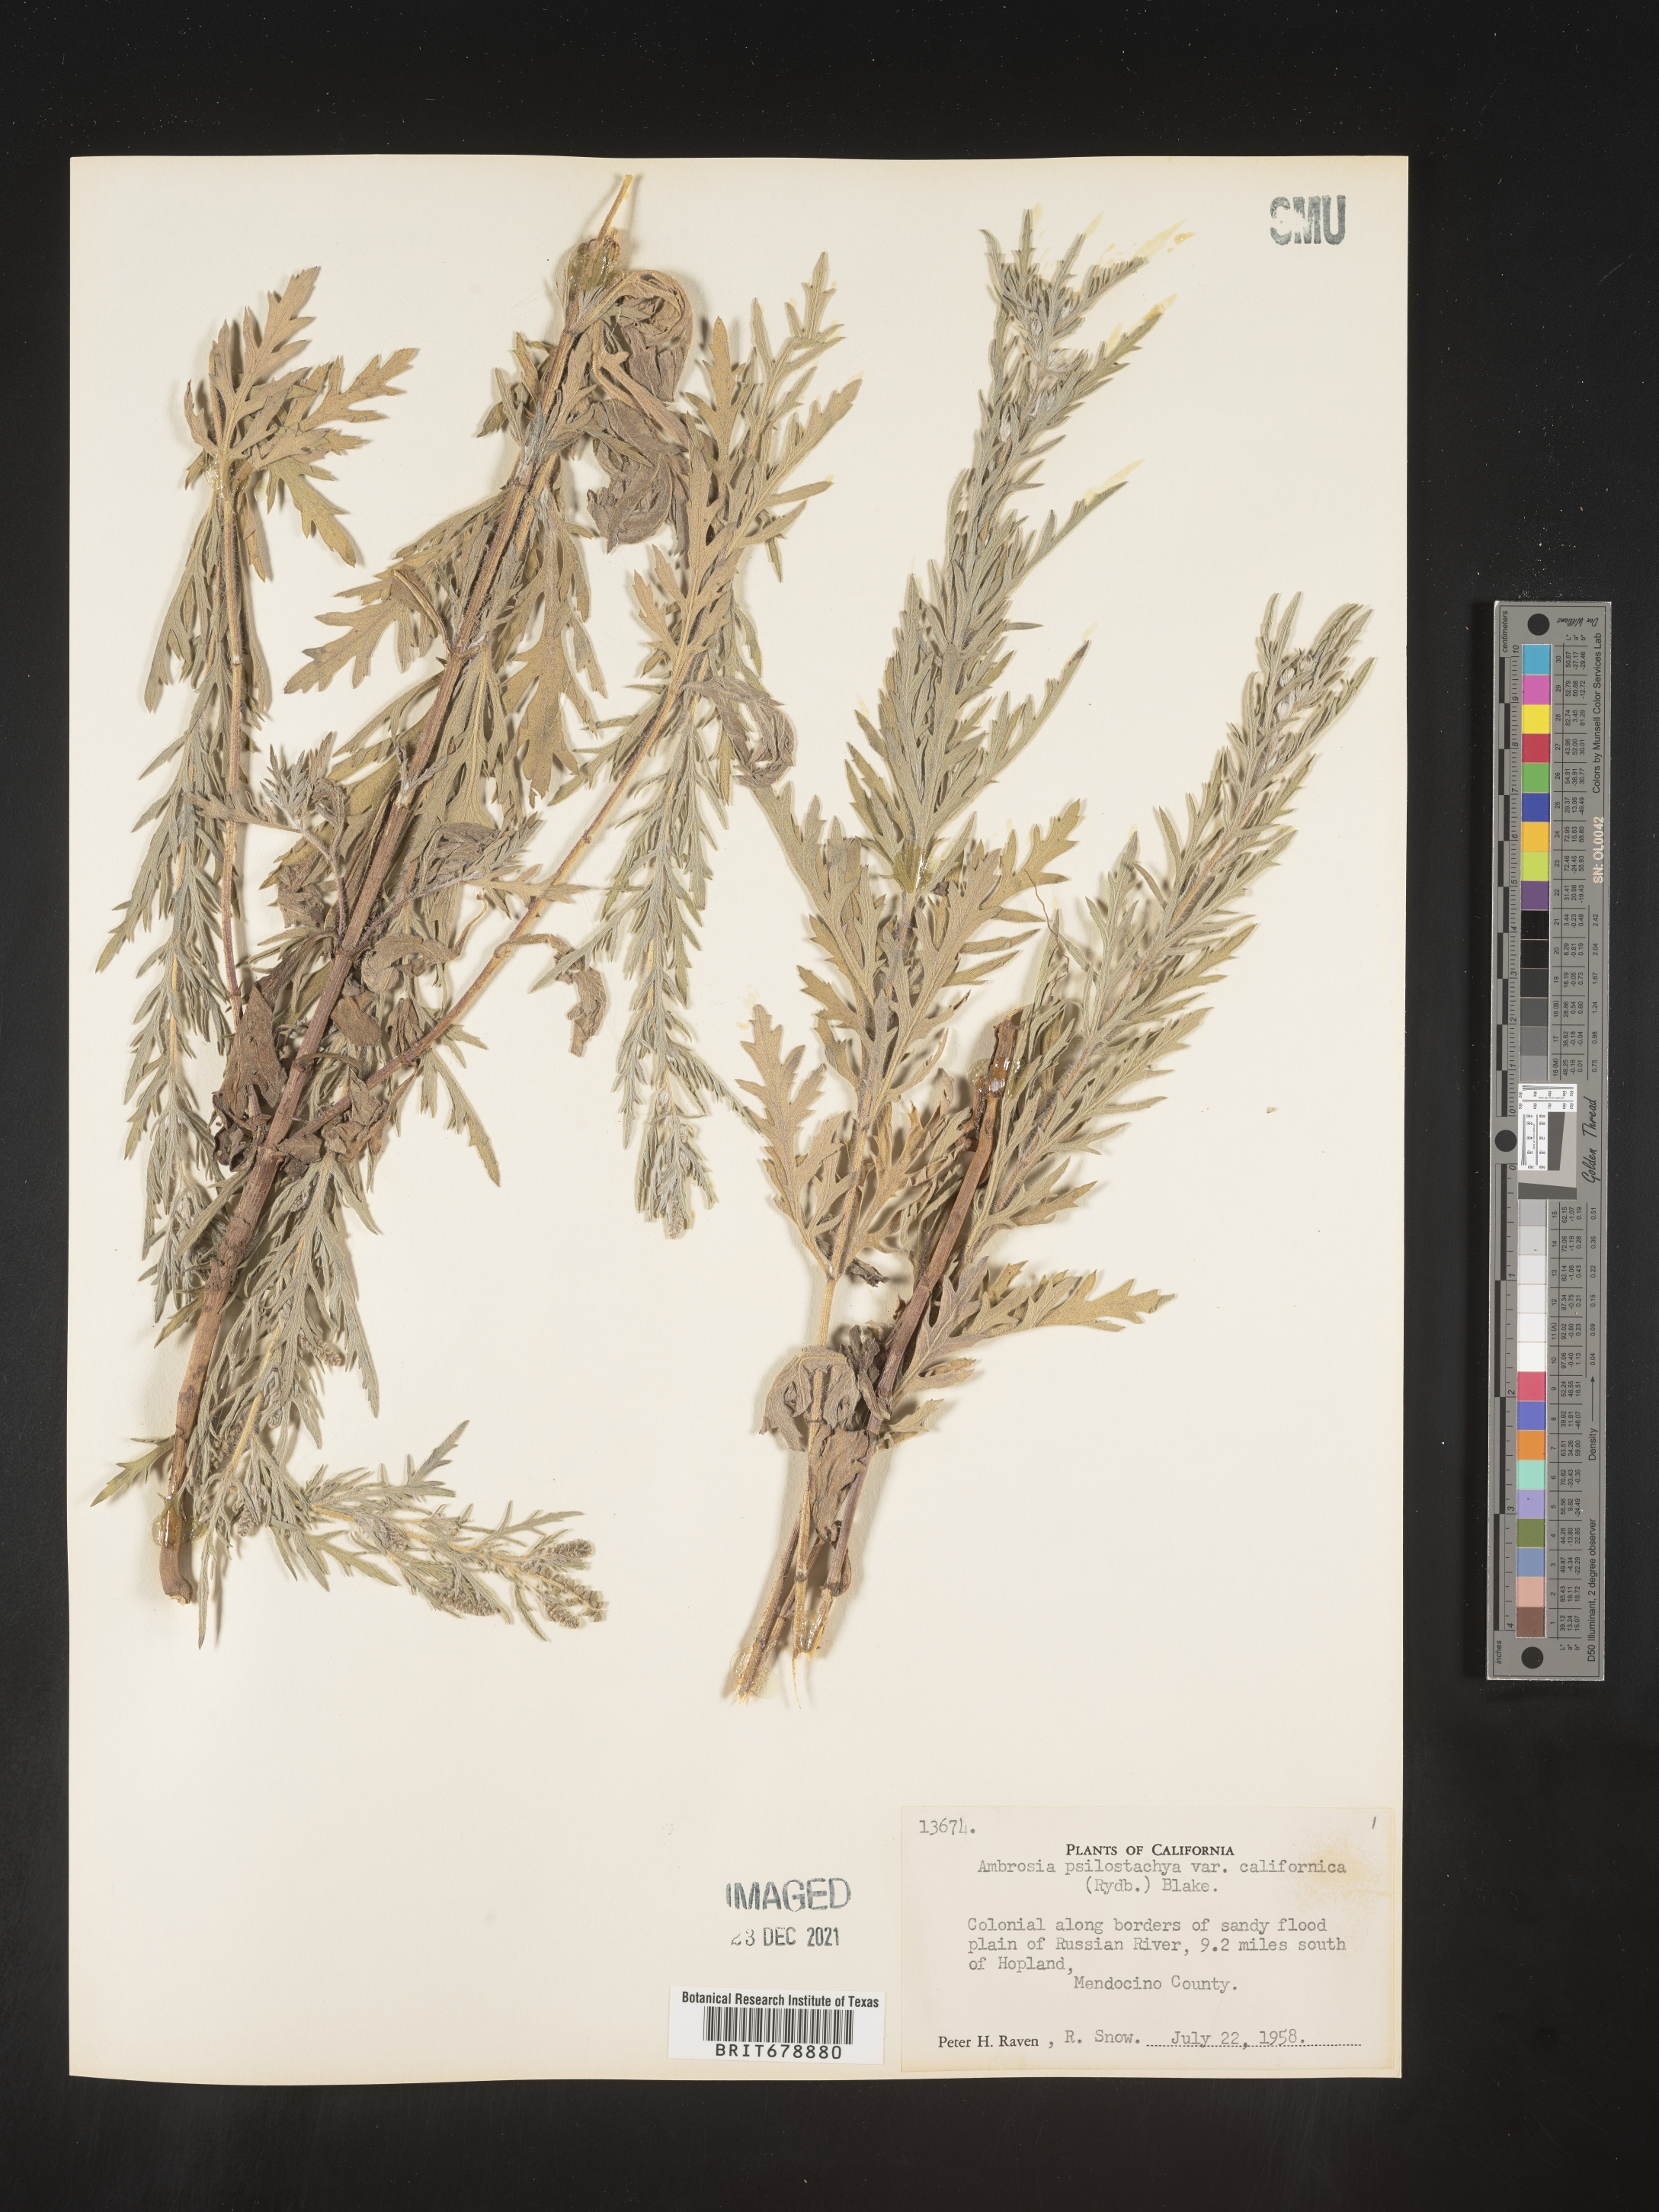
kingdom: Plantae
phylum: Tracheophyta
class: Magnoliopsida
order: Asterales
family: Asteraceae
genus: Ambrosia
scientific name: Ambrosia psilostachya
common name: Perennial ragweed
